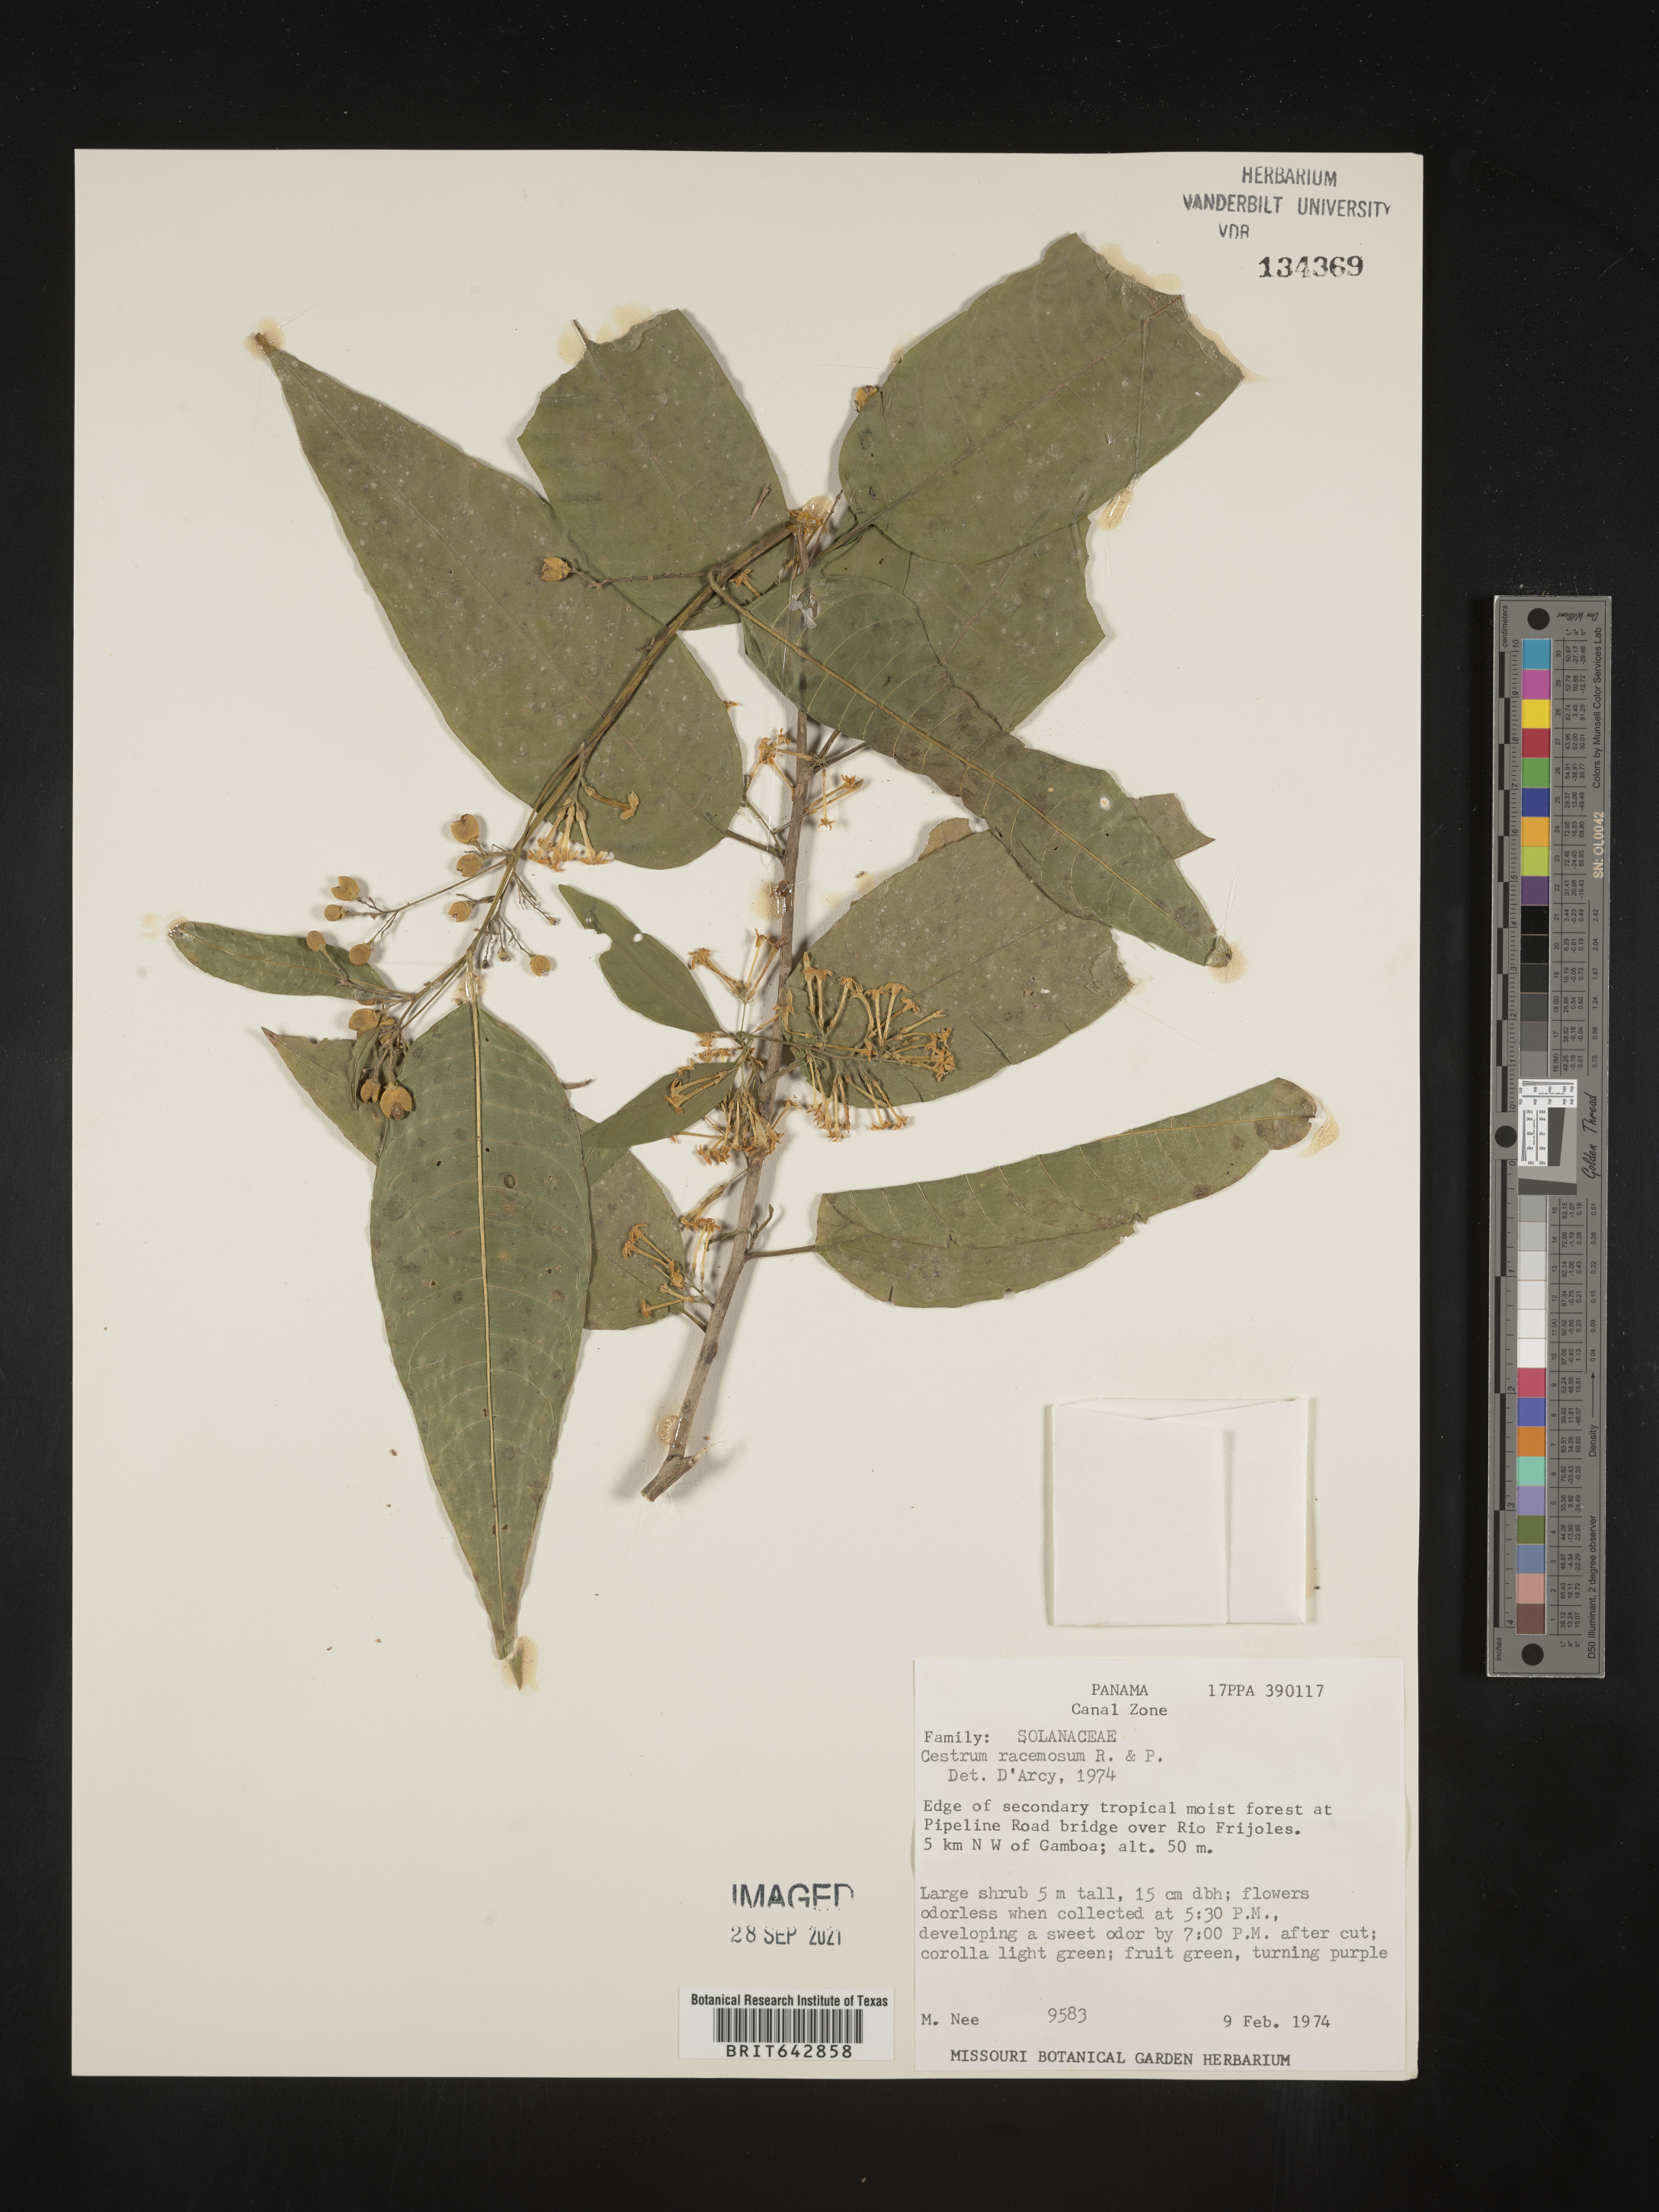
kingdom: Plantae
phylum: Tracheophyta
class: Magnoliopsida
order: Solanales
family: Solanaceae
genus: Cestrum
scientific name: Cestrum
